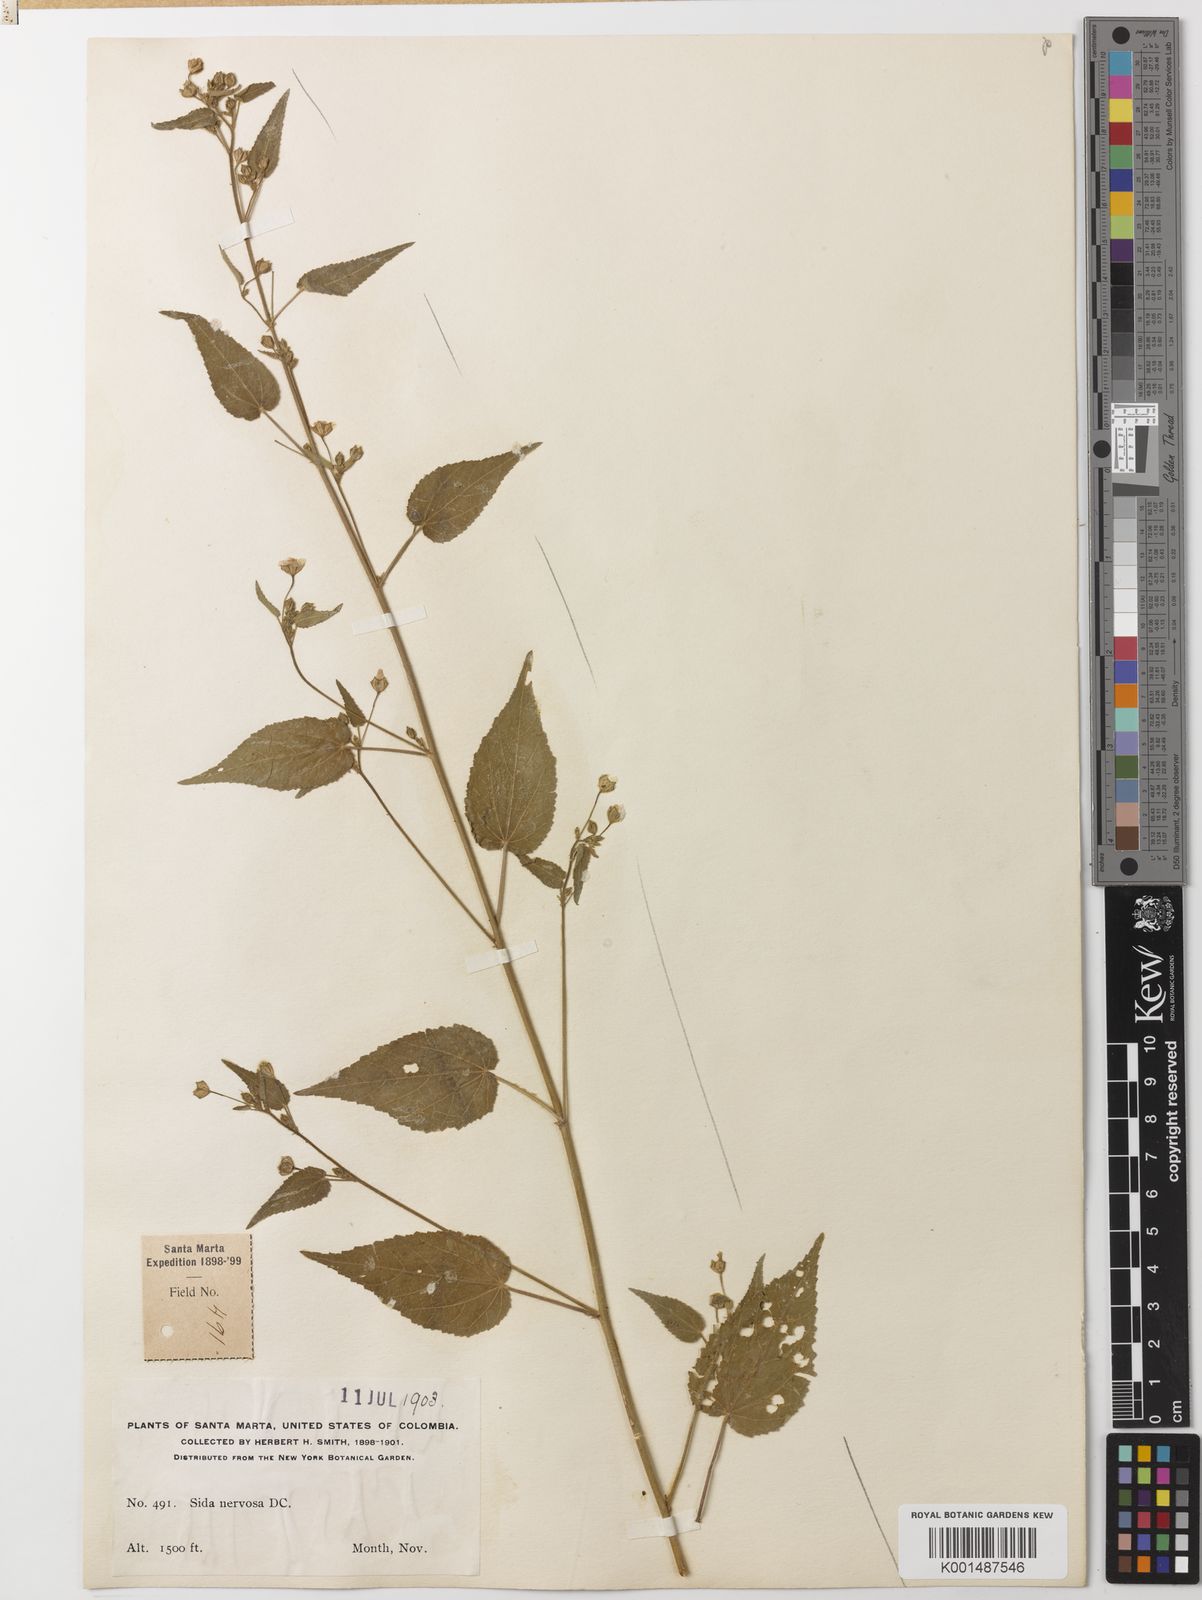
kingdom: Plantae
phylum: Tracheophyta
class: Magnoliopsida
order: Malvales
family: Malvaceae
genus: Sida
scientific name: Sida glutinosa
